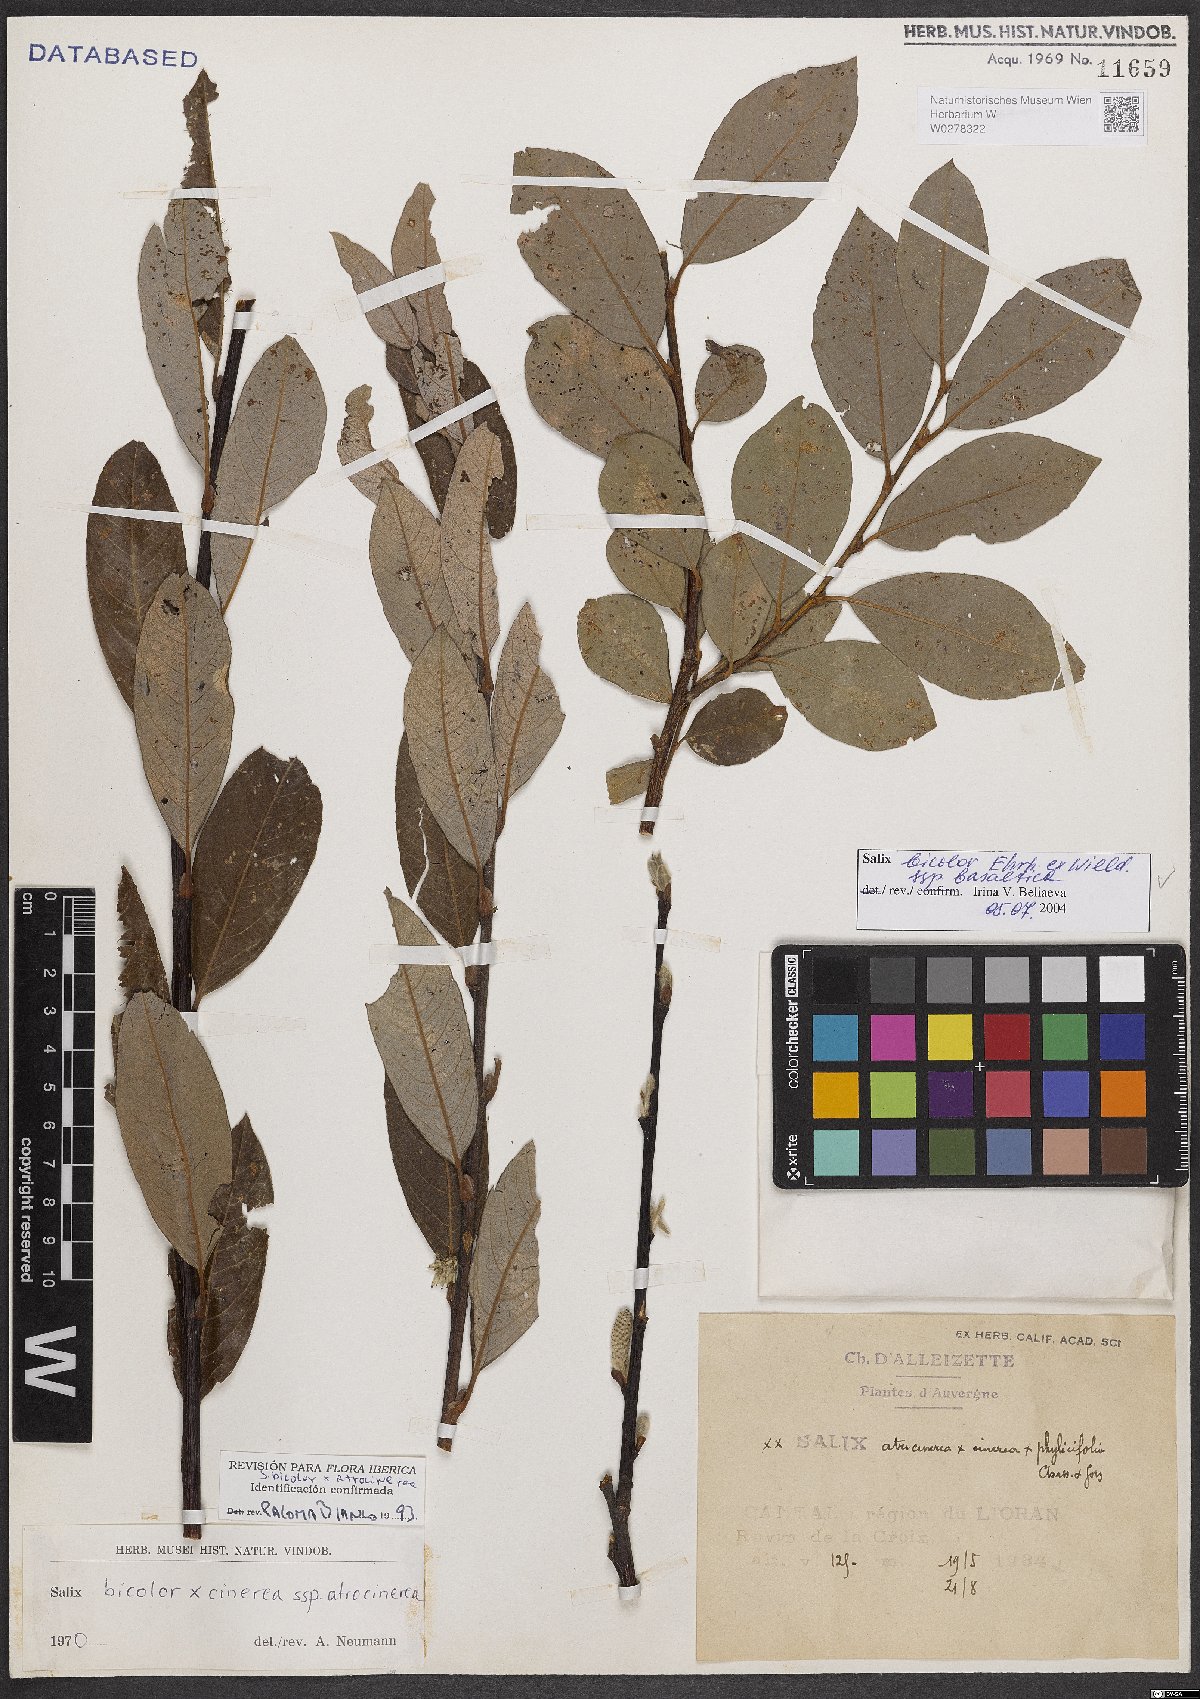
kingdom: Plantae
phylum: Tracheophyta
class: Magnoliopsida
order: Malpighiales
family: Salicaceae
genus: Salix
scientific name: Salix basaltica
